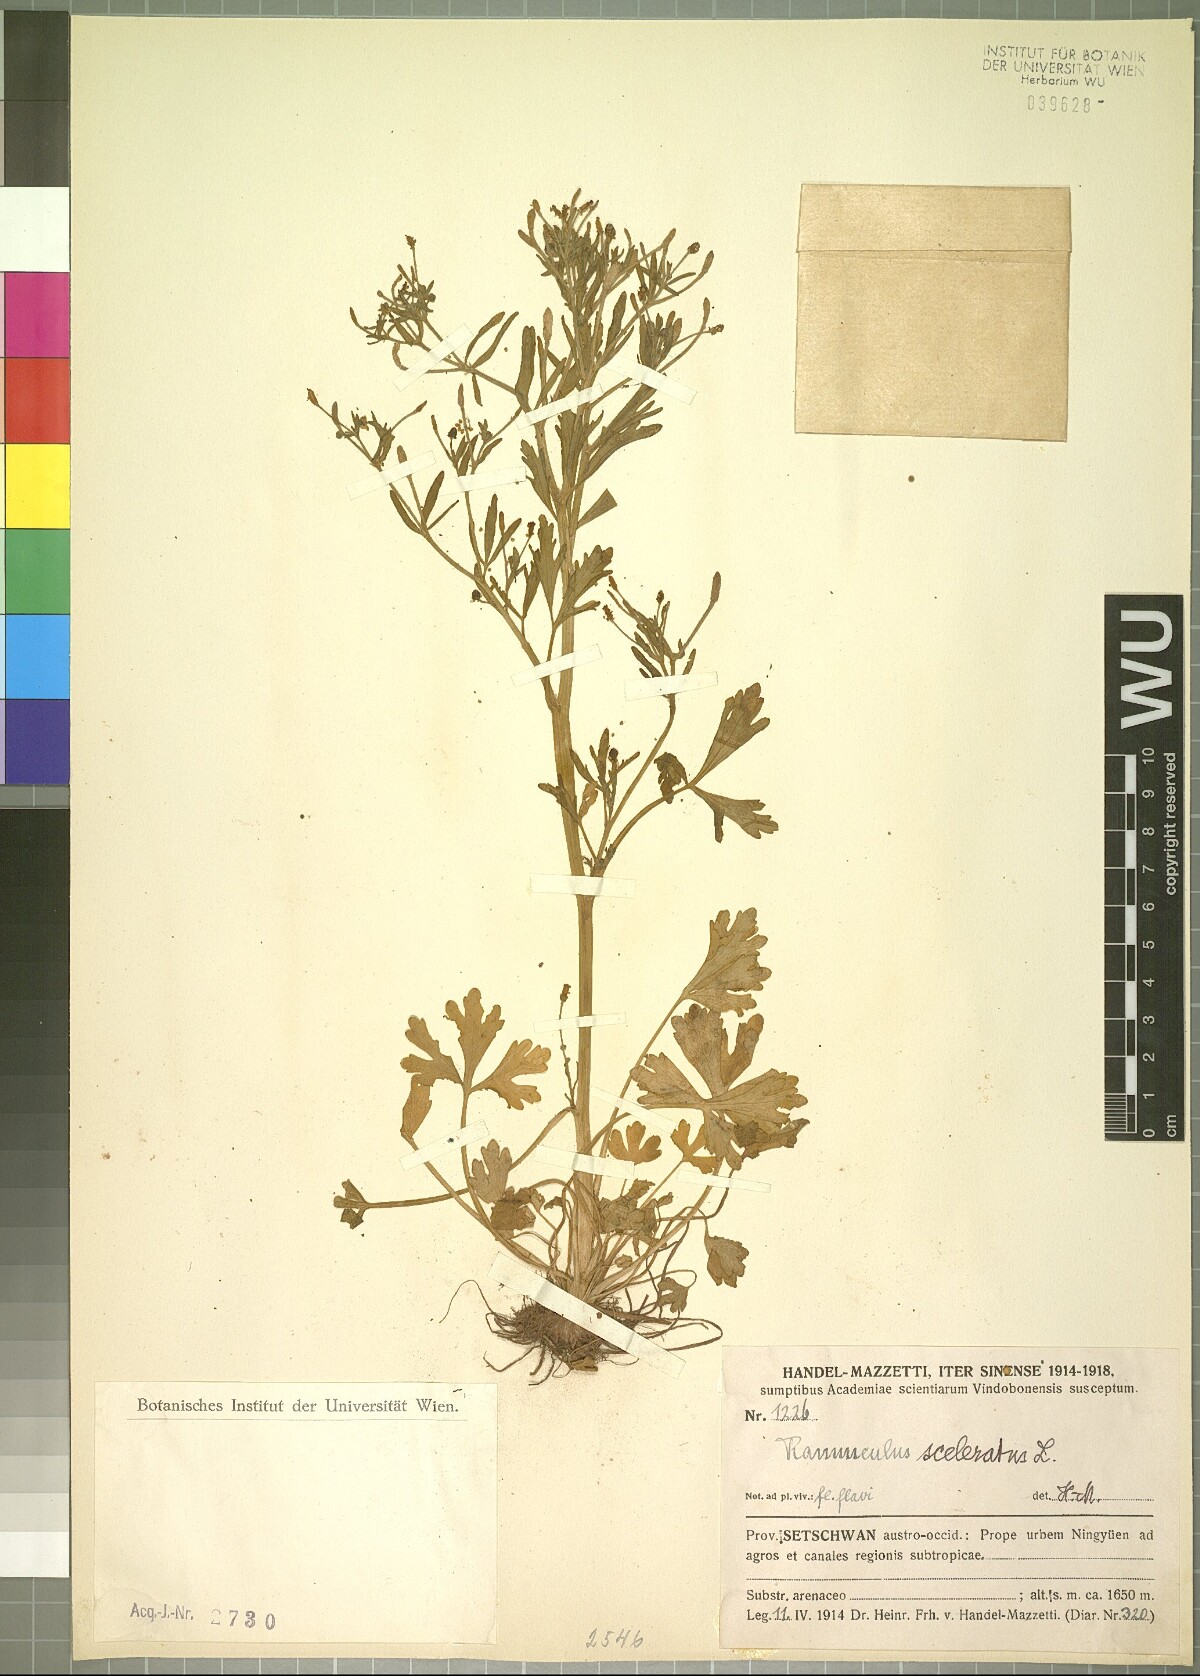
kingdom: Plantae
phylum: Tracheophyta
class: Magnoliopsida
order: Ranunculales
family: Ranunculaceae
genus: Ranunculus
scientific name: Ranunculus sceleratus
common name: Celery-leaved buttercup
